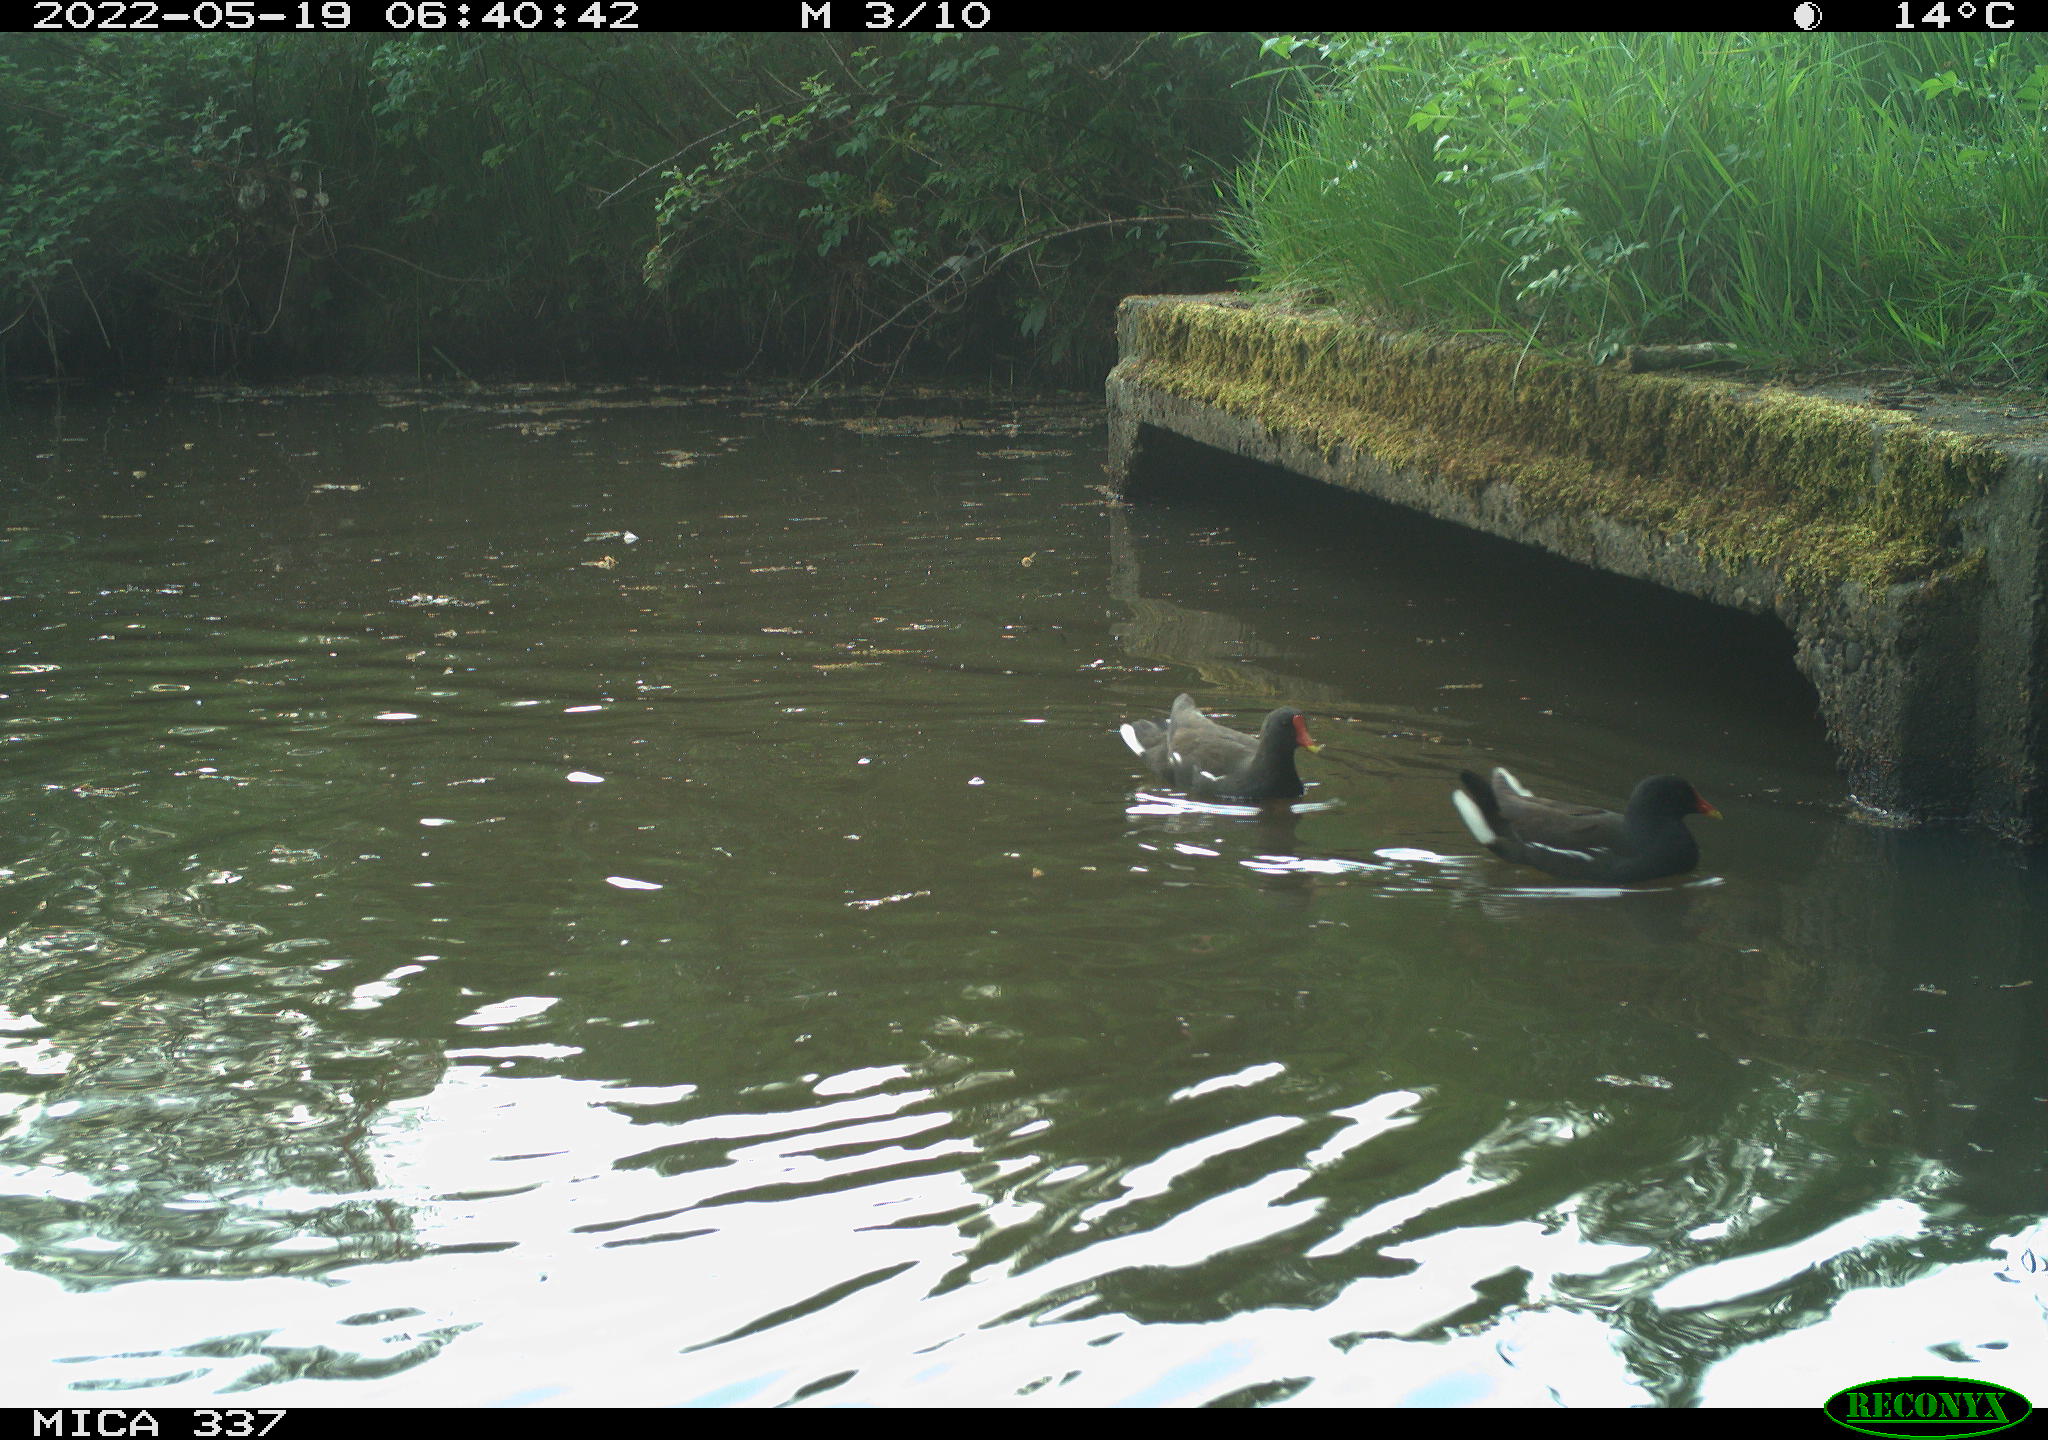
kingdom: Animalia
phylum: Chordata
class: Aves
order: Gruiformes
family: Rallidae
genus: Gallinula
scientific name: Gallinula chloropus
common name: Common moorhen
